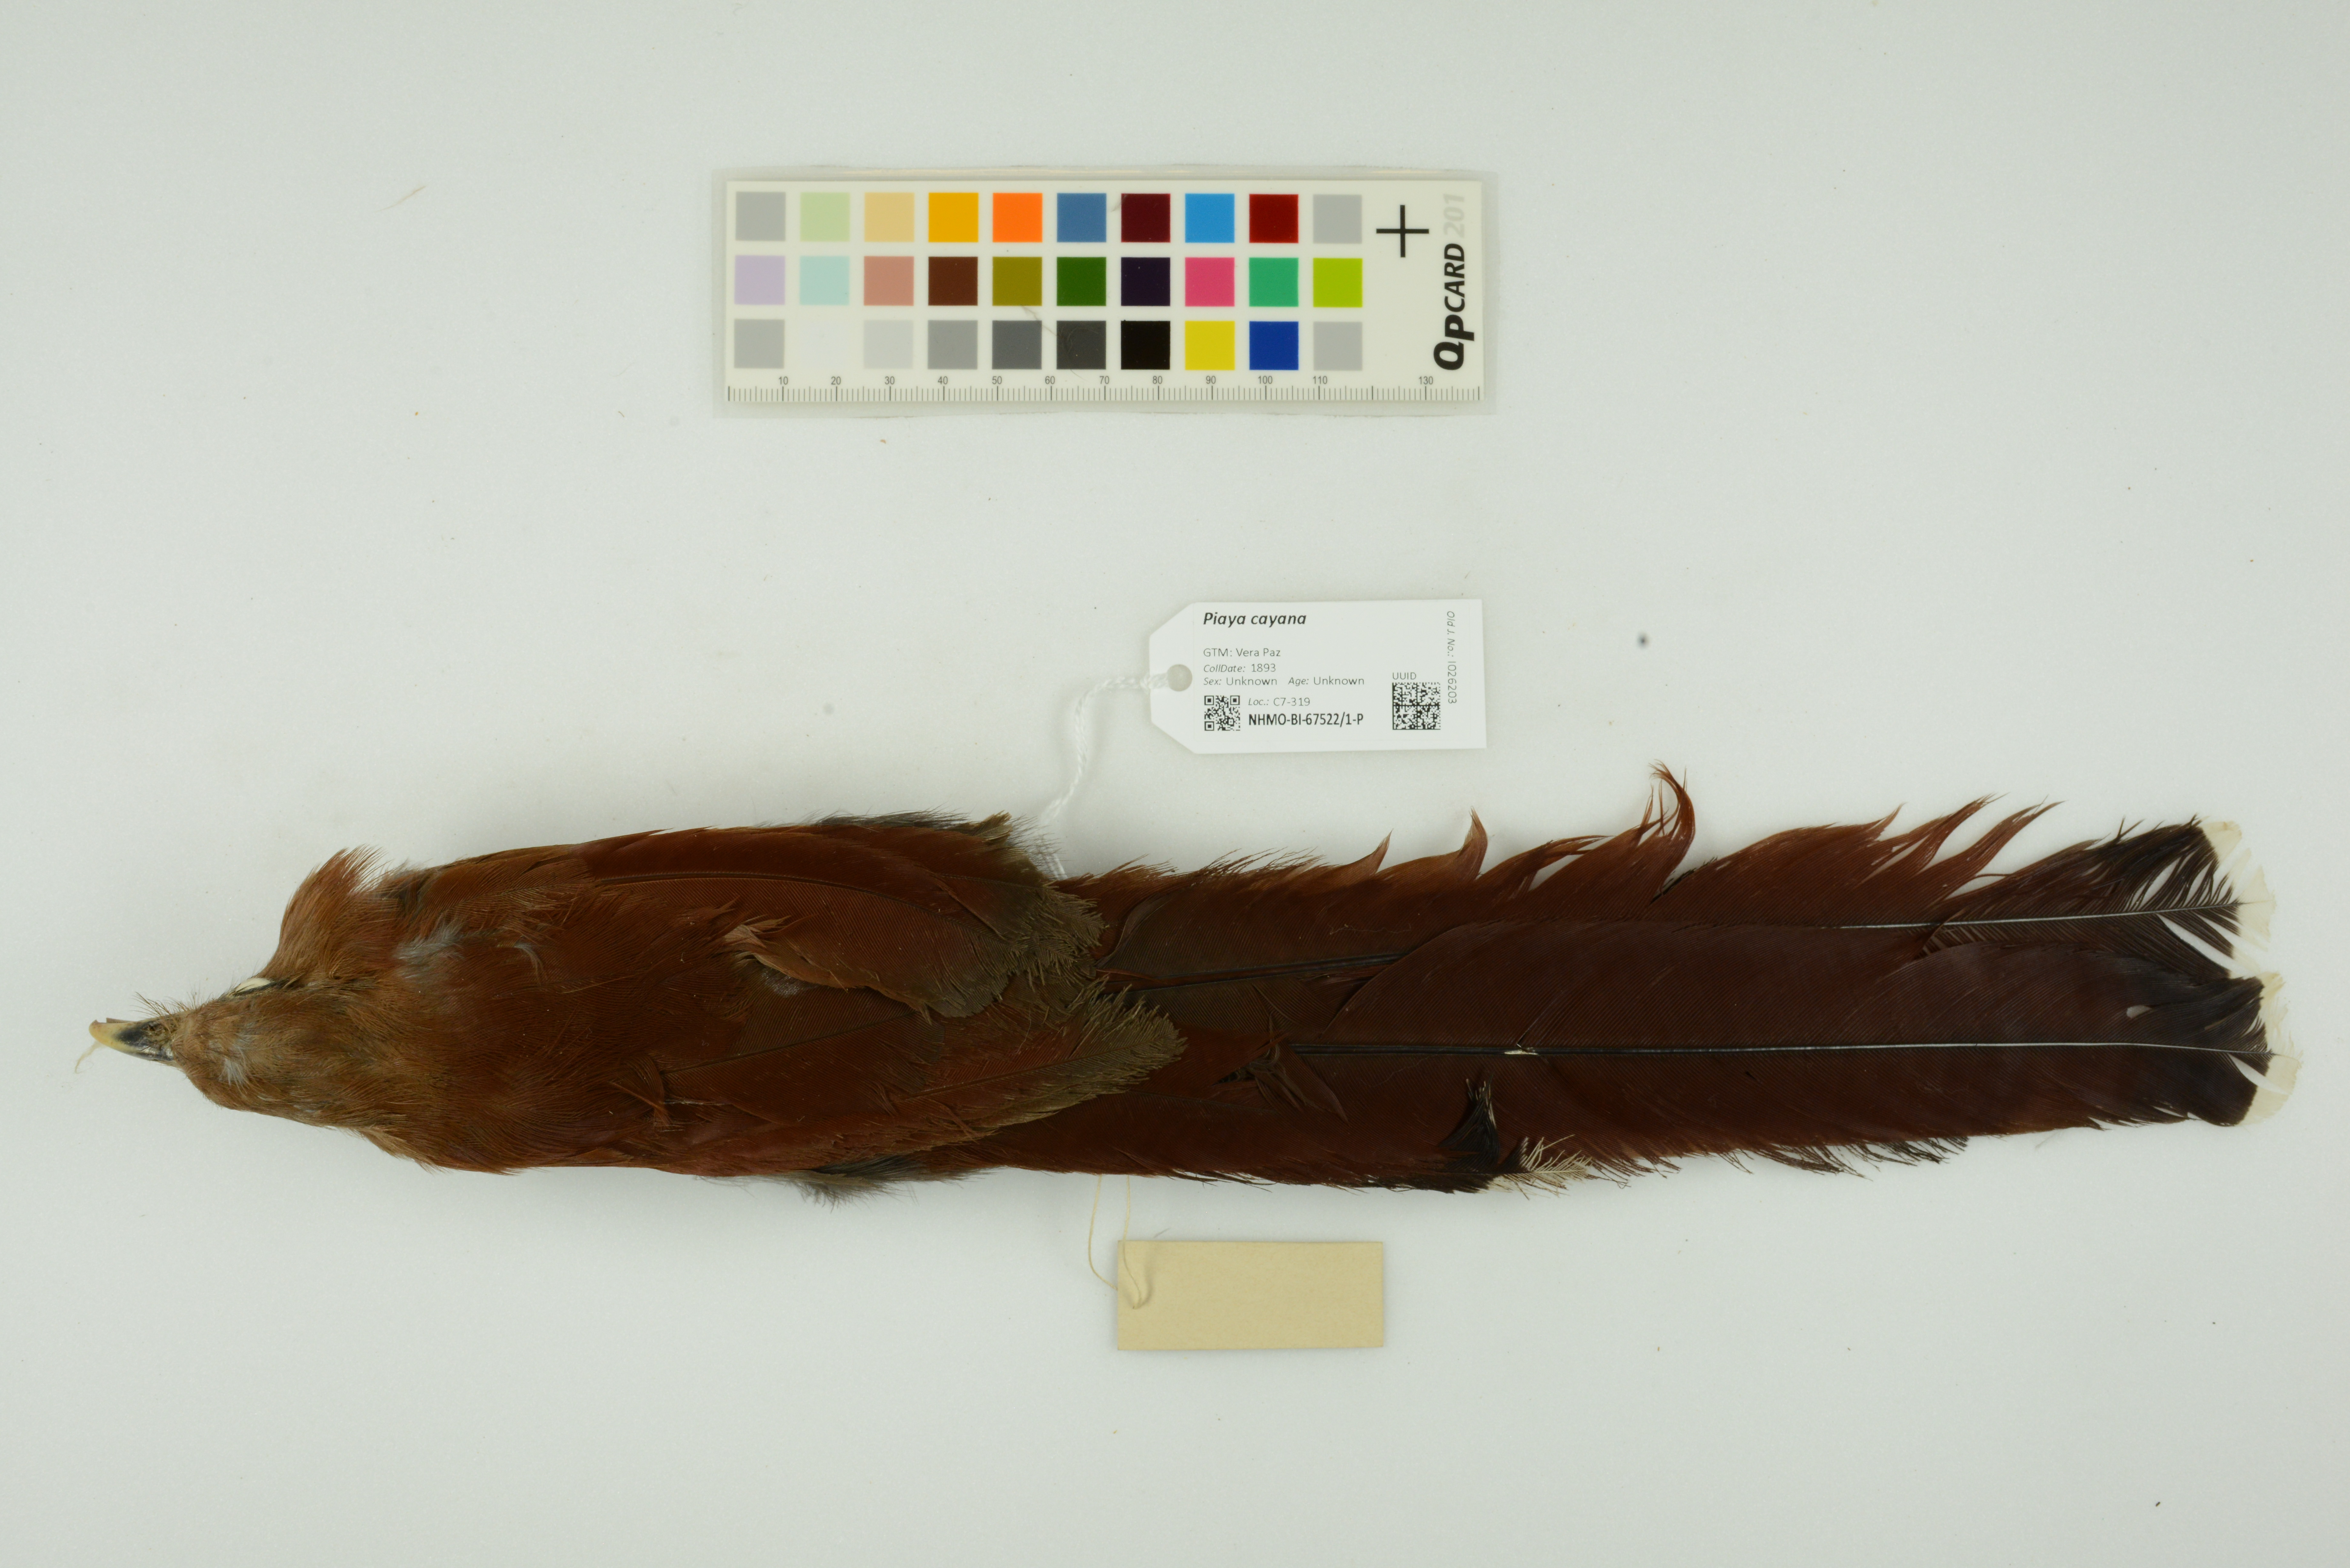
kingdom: Animalia
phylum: Chordata
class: Aves
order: Cuculiformes
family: Cuculidae
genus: Piaya
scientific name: Piaya cayana
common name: Squirrel cuckoo
